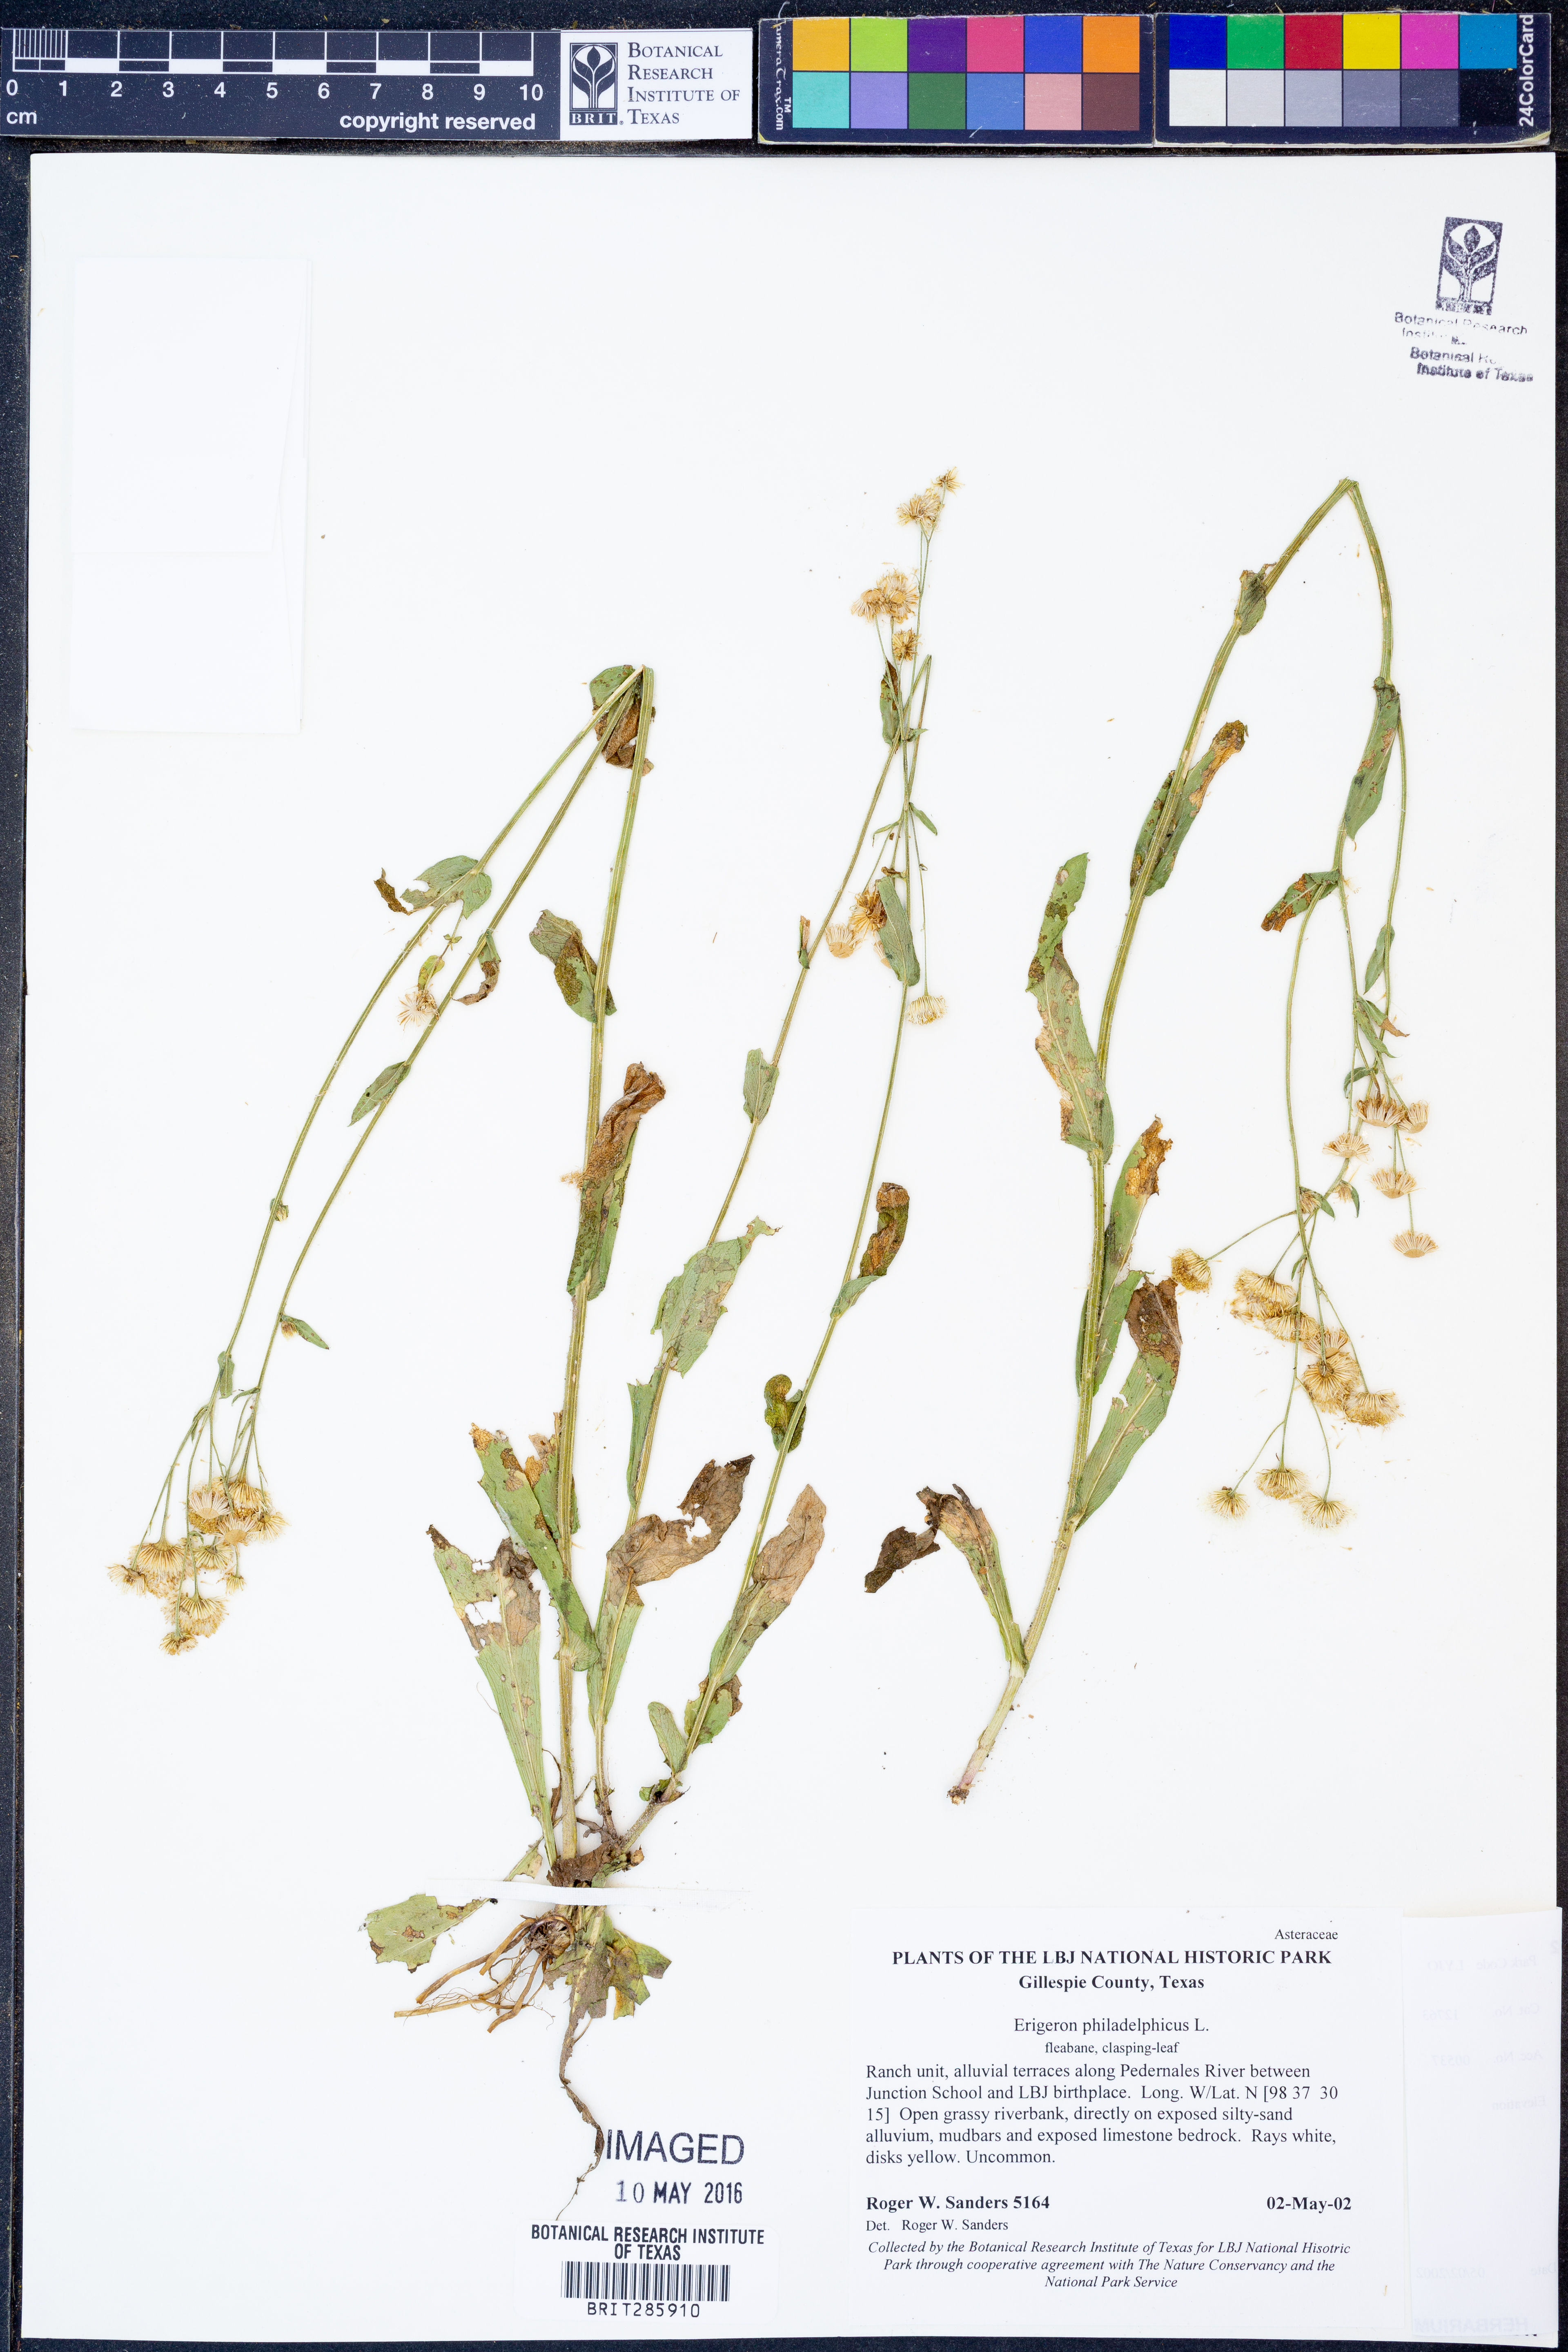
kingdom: Plantae
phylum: Tracheophyta
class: Magnoliopsida
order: Asterales
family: Asteraceae
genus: Erigeron
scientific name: Erigeron philadelphicus
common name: Robin's-plantain
